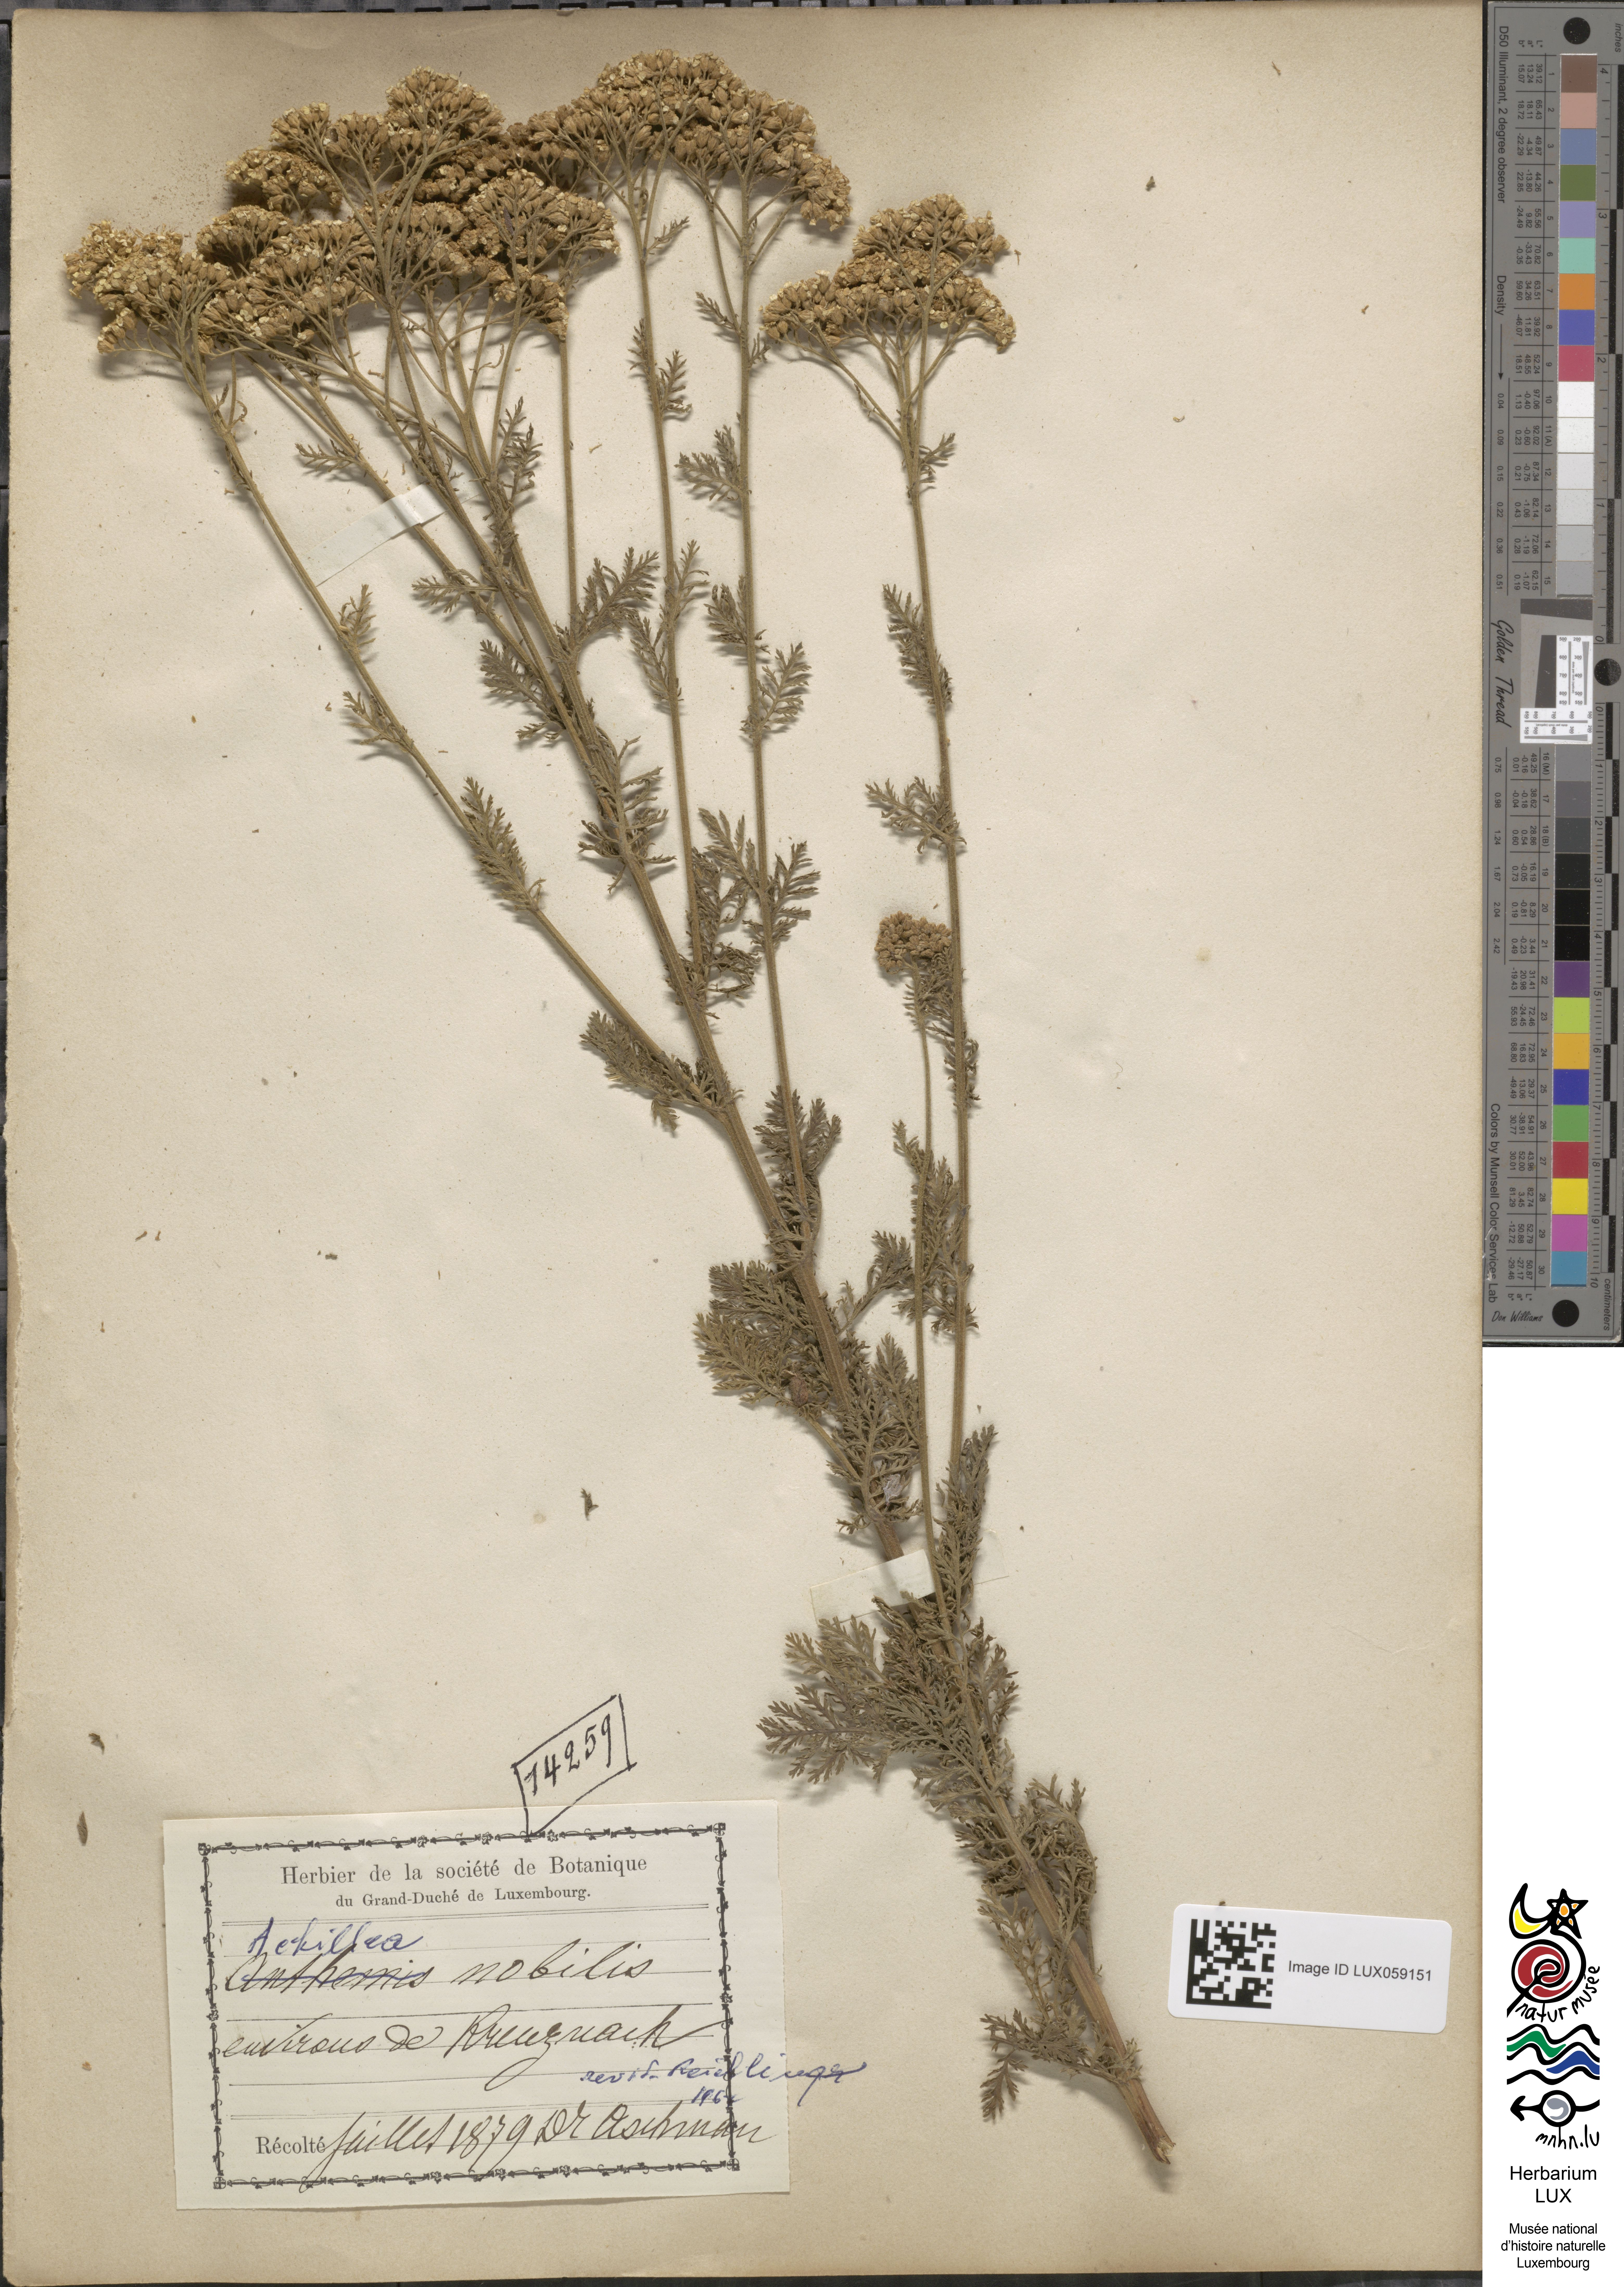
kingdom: Plantae
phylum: Tracheophyta
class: Magnoliopsida
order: Asterales
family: Asteraceae
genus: Achillea
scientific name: Achillea nobilis
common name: Noble yarrow
